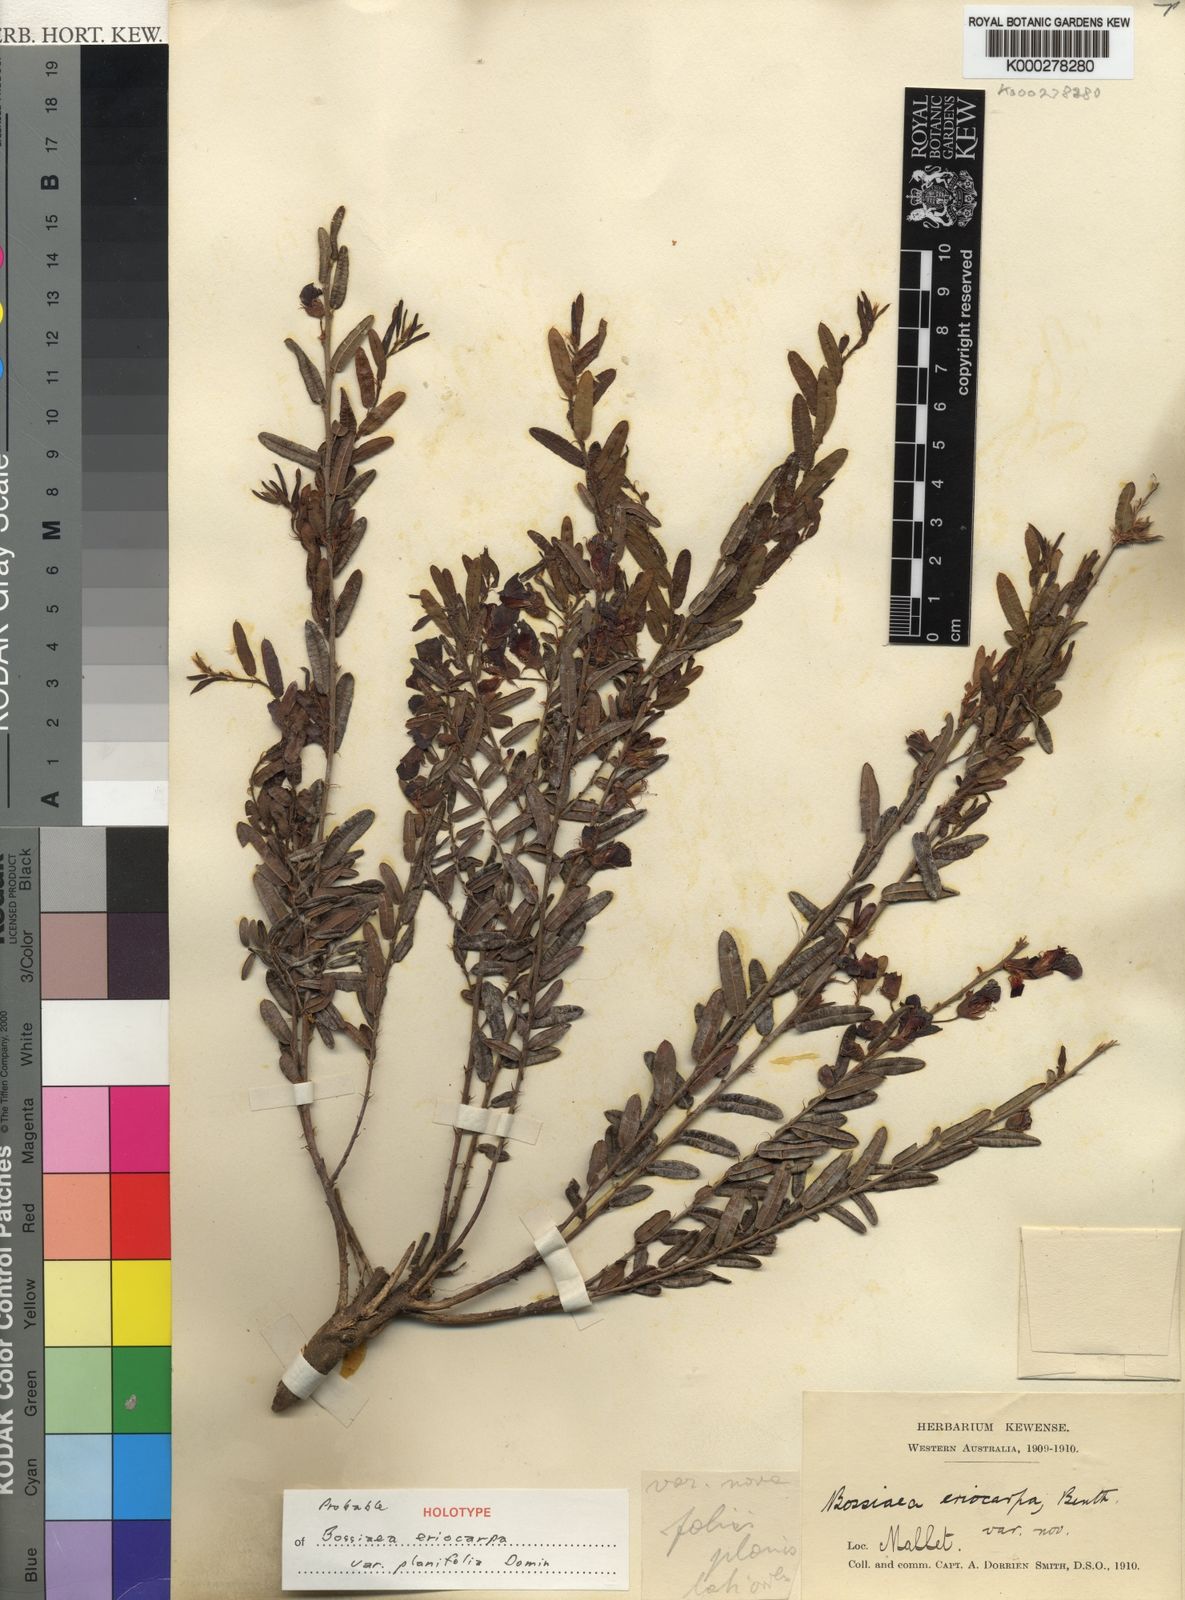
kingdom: Plantae
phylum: Tracheophyta
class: Magnoliopsida
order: Fabales
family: Fabaceae
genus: Bossiaea
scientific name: Bossiaea eriocarpa
